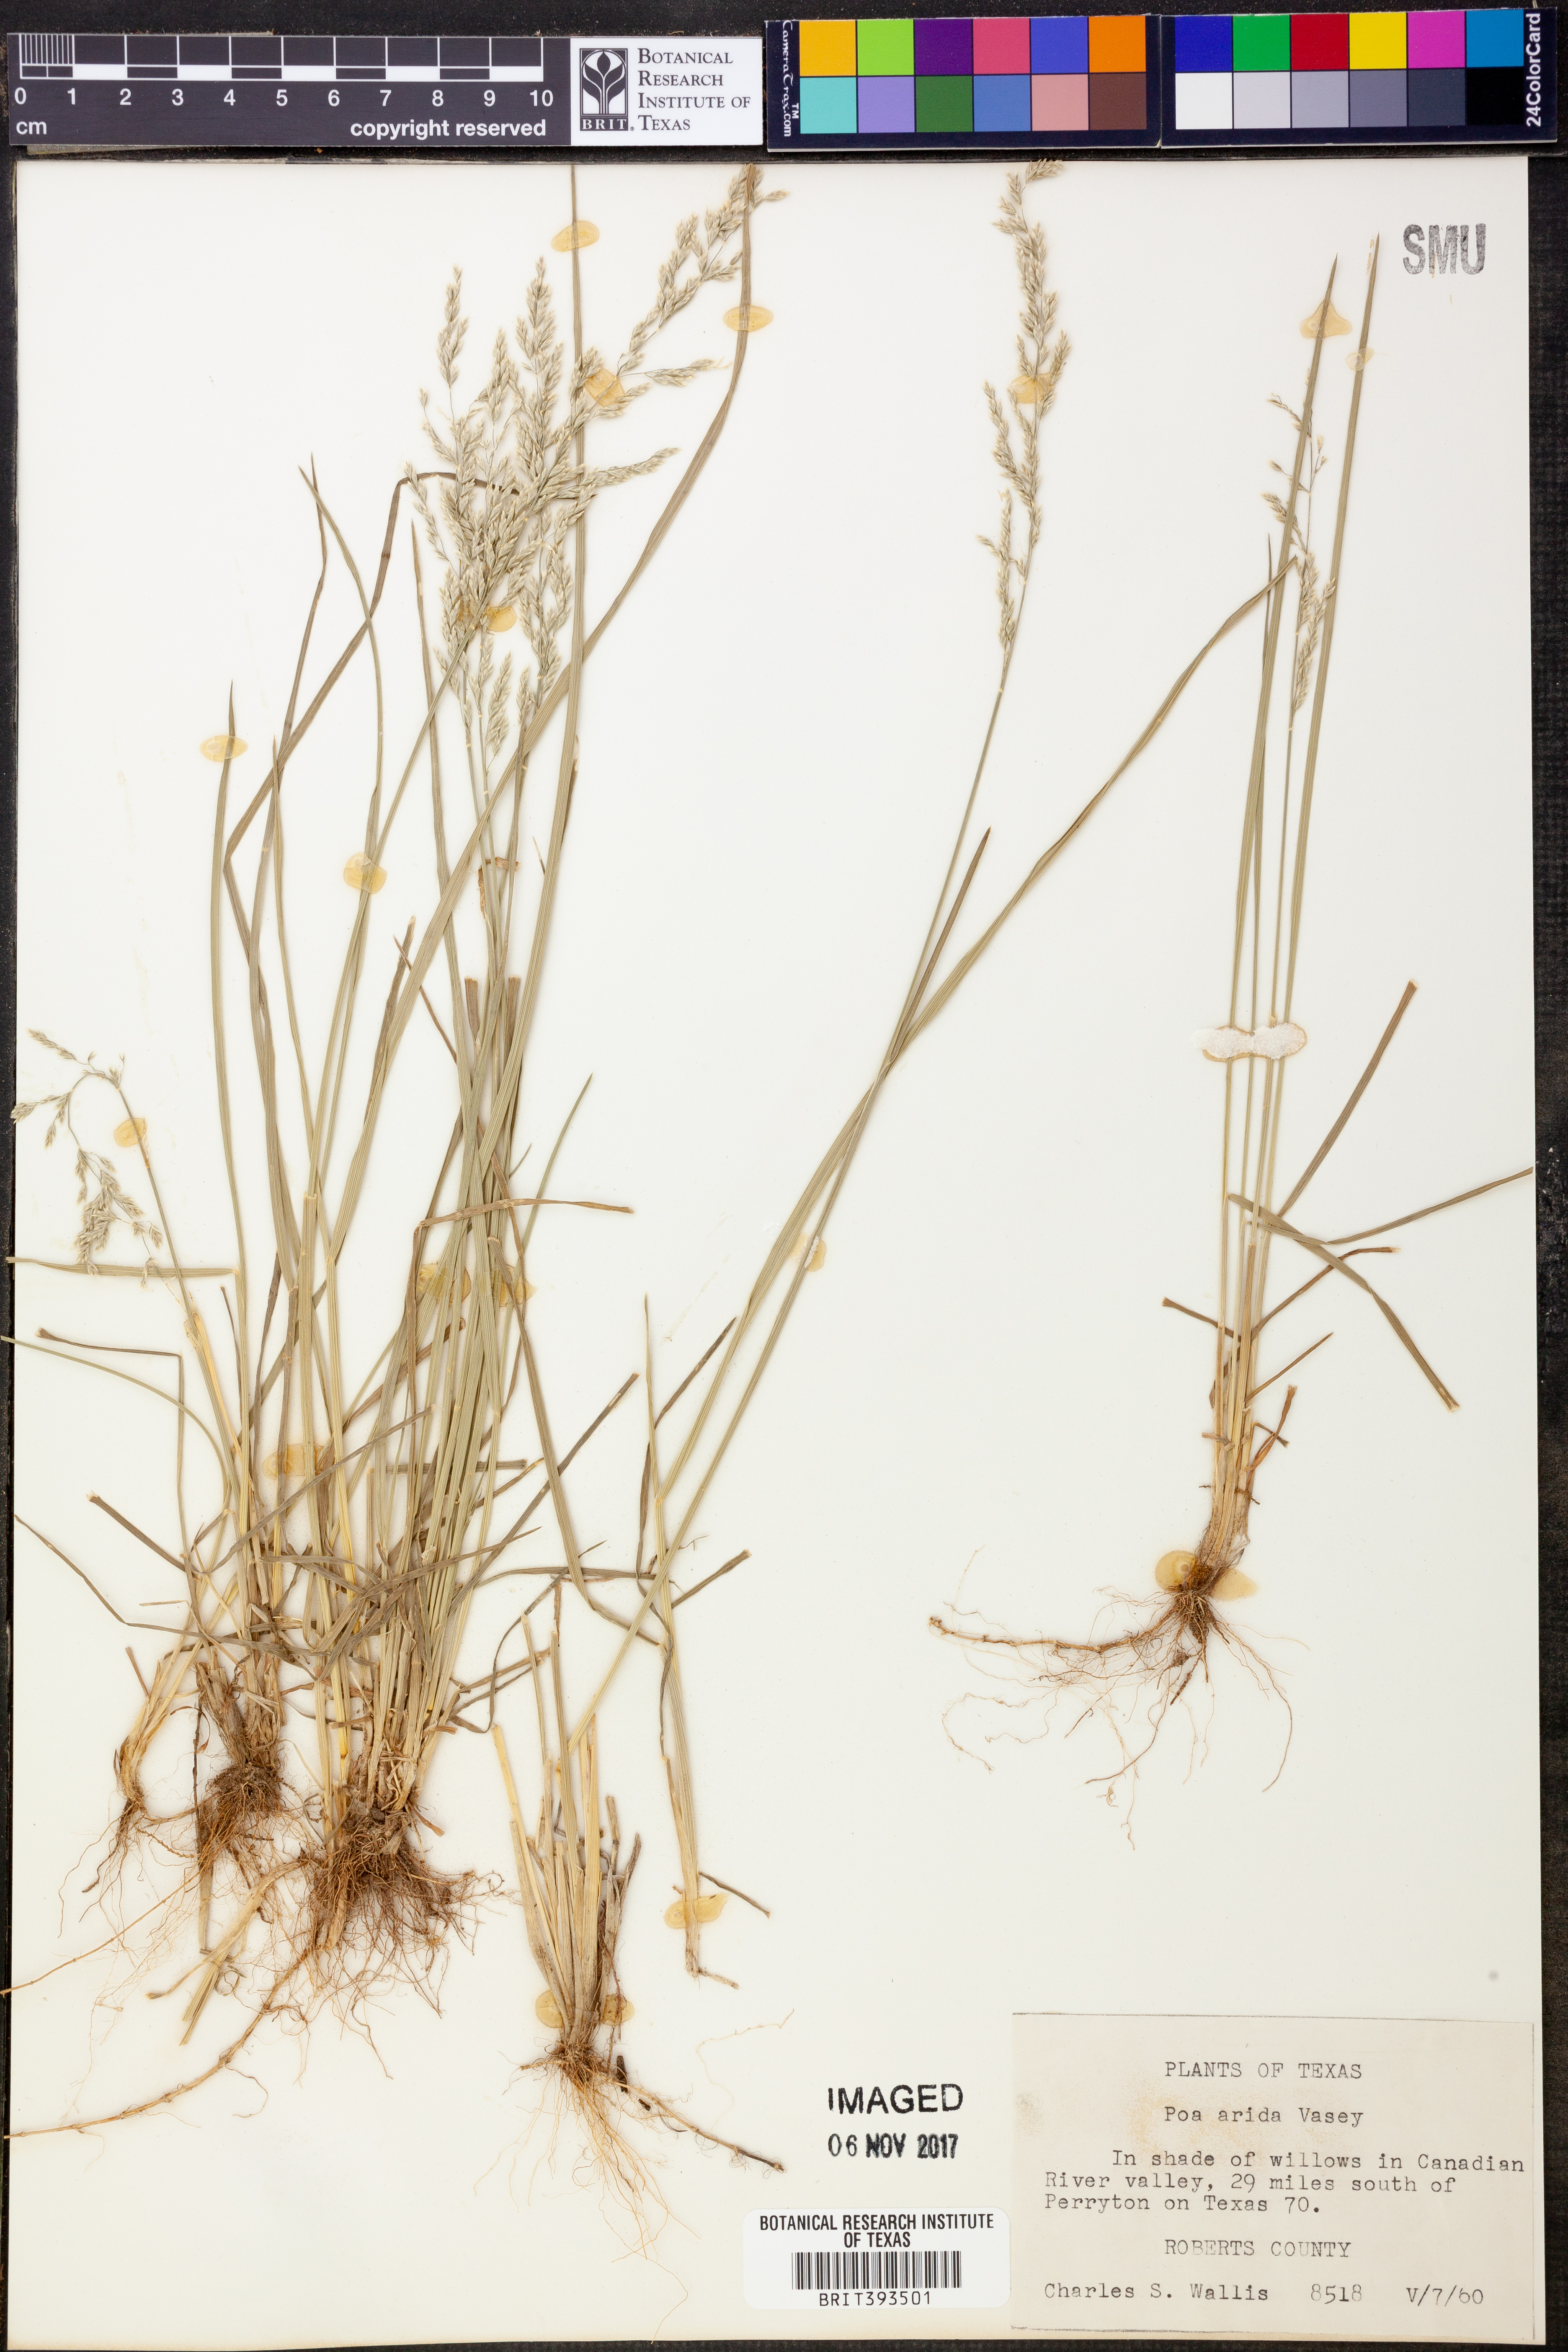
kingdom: Plantae
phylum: Tracheophyta
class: Liliopsida
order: Poales
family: Poaceae
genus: Poa
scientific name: Poa arida
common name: Plains bluegrass
